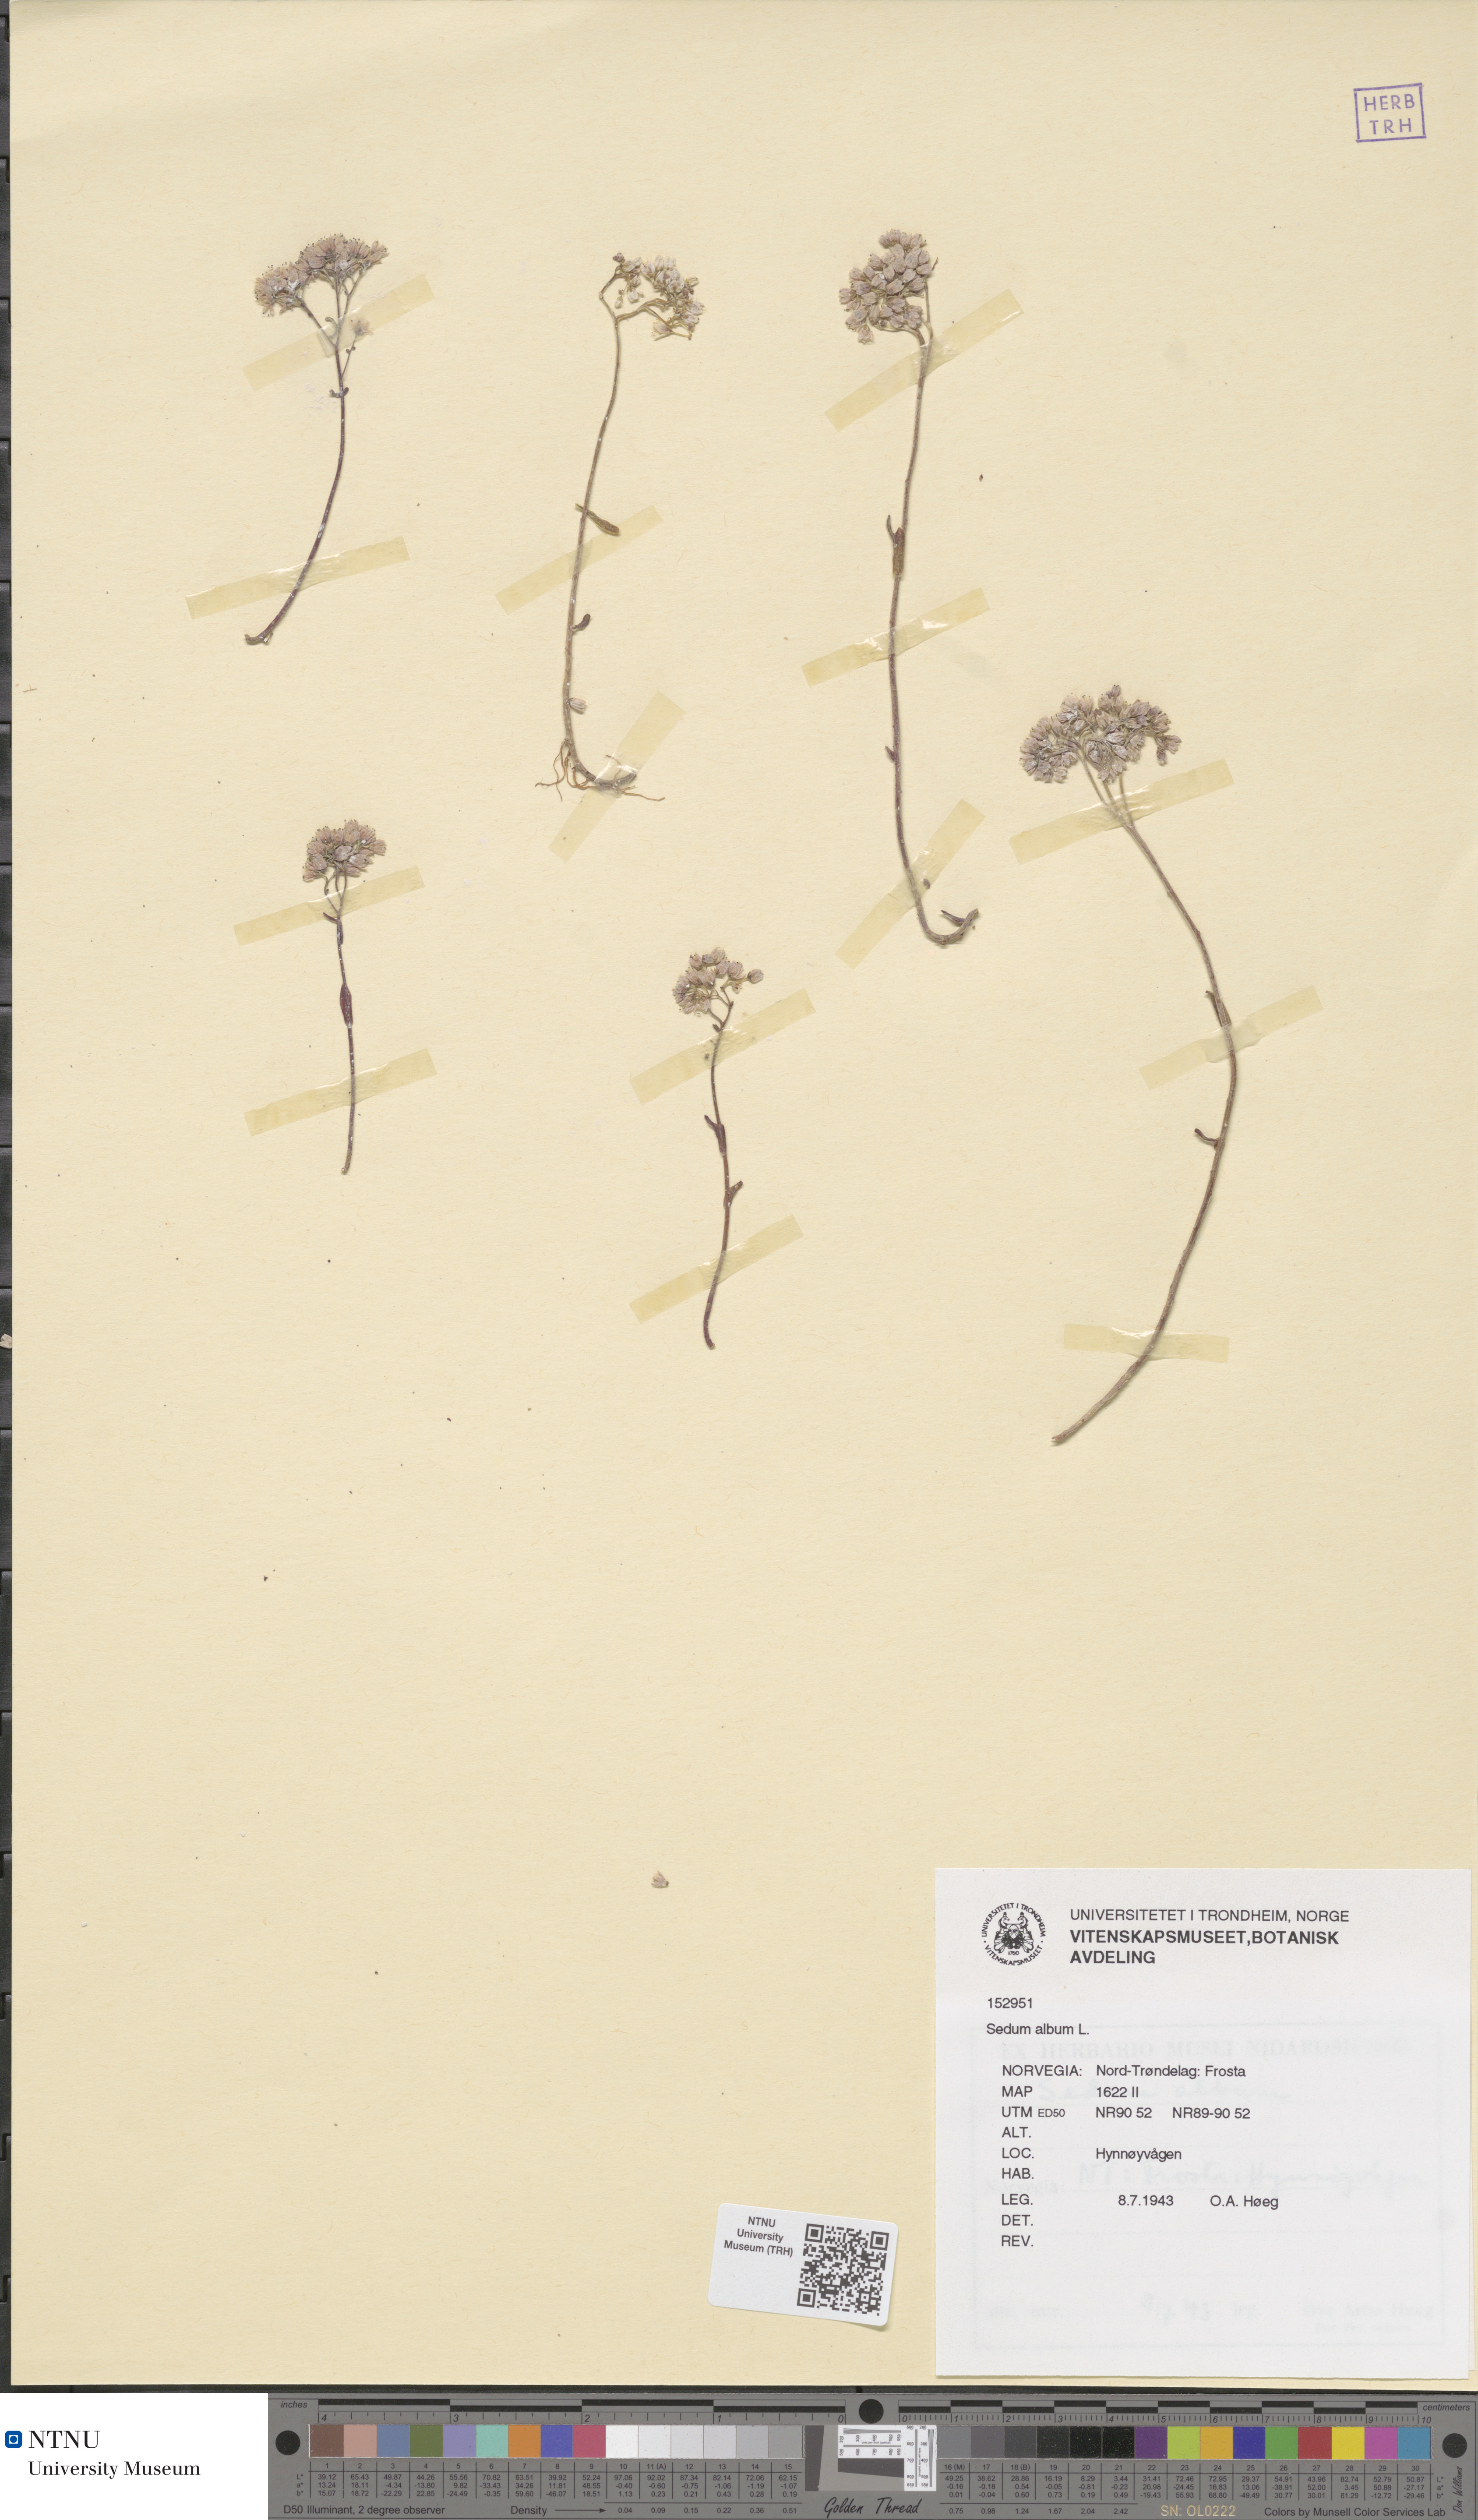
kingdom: Plantae
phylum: Tracheophyta
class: Magnoliopsida
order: Saxifragales
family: Crassulaceae
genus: Sedum
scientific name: Sedum album
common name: White stonecrop
